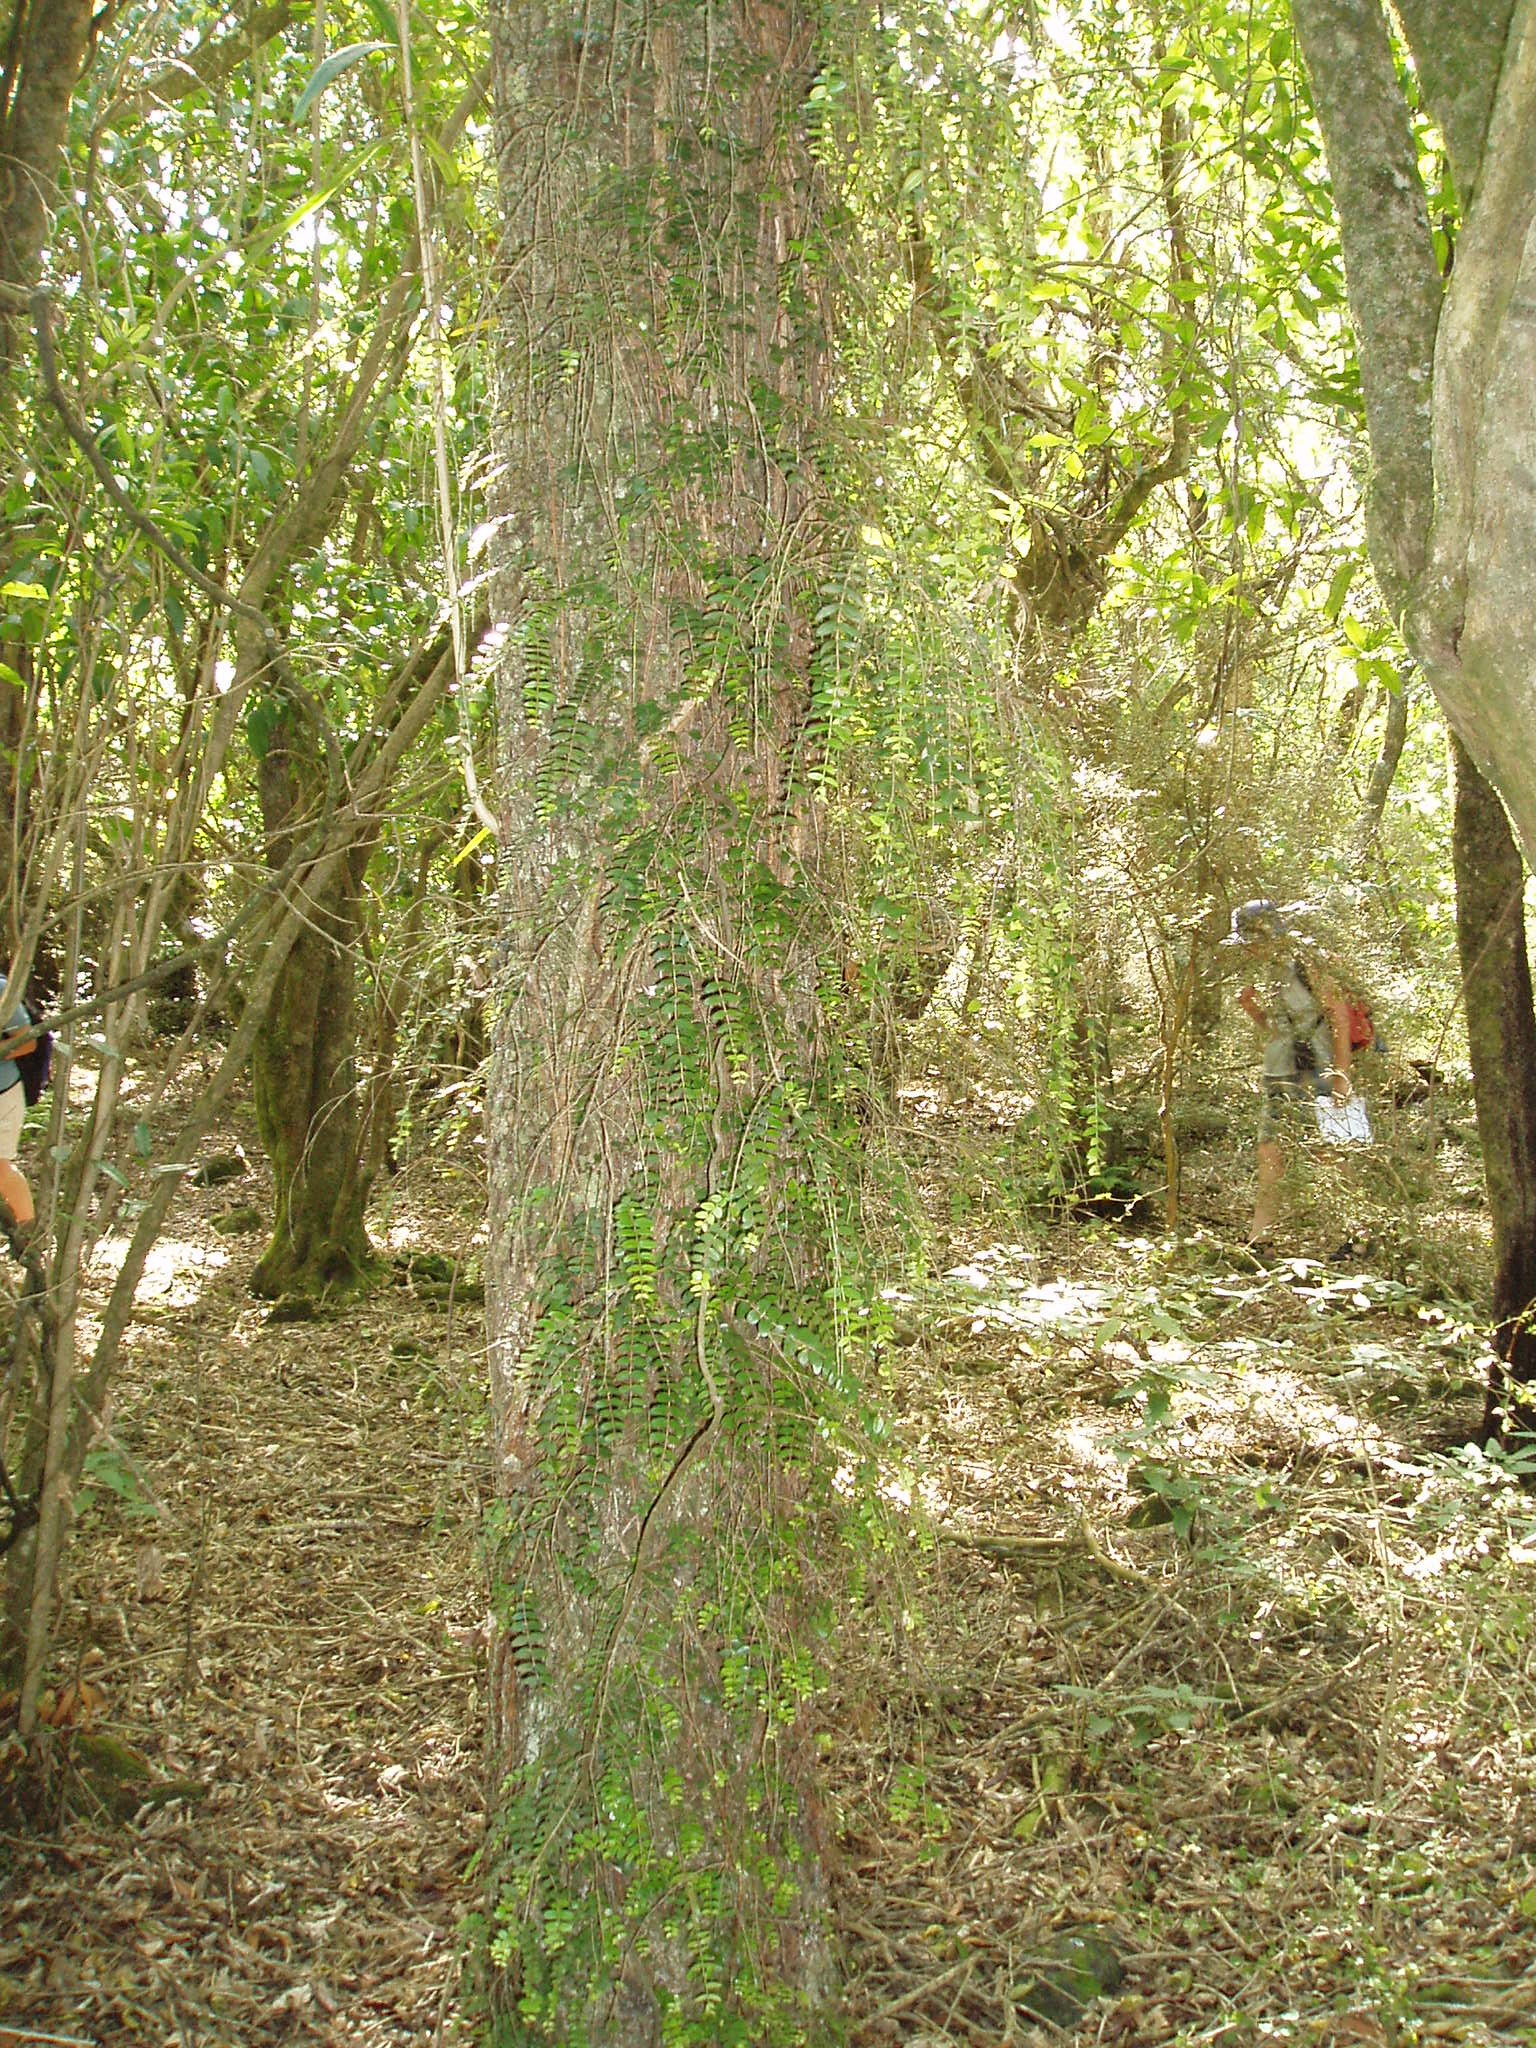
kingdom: Plantae
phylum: Tracheophyta
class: Magnoliopsida
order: Myrtales
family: Myrtaceae
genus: Metrosideros
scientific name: Metrosideros diffusa
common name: Small ratavine
